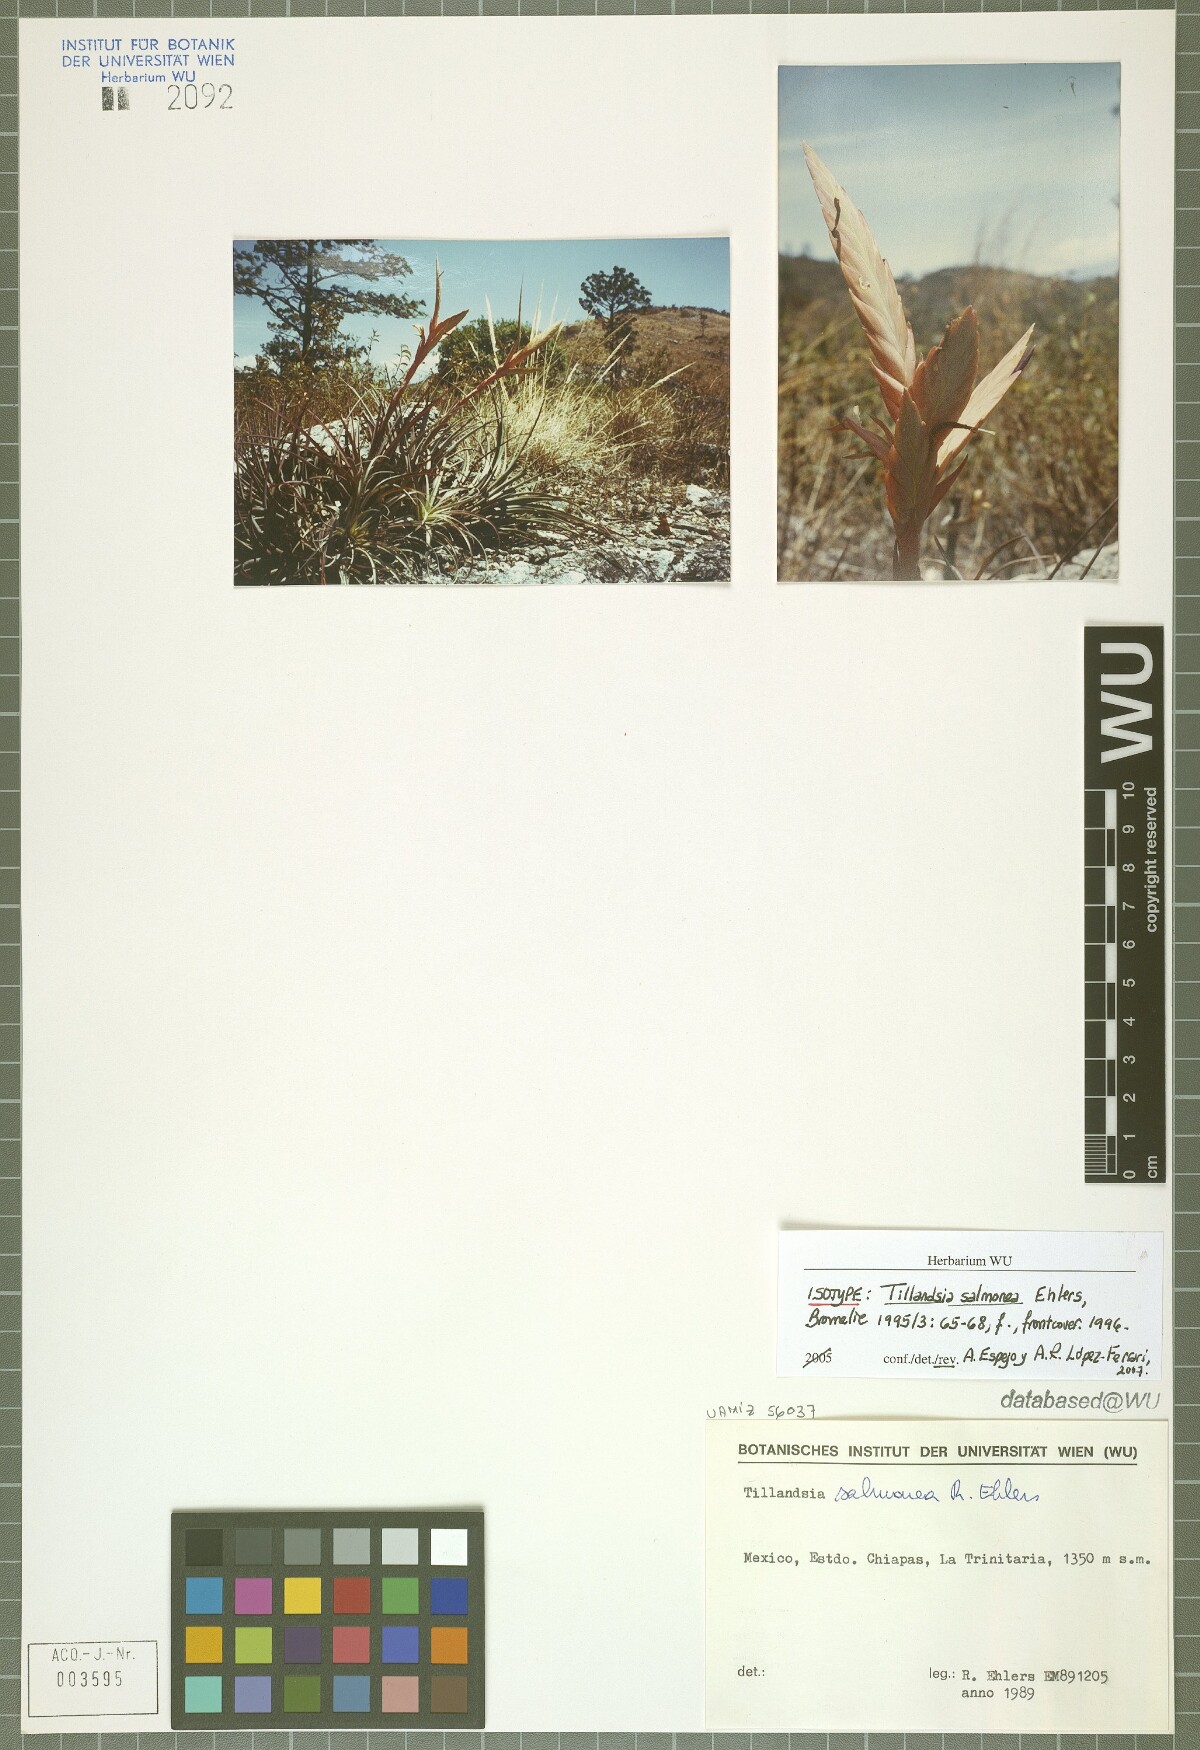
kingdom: Plantae
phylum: Tracheophyta
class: Liliopsida
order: Poales
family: Bromeliaceae
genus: Tillandsia
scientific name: Tillandsia salmonea
